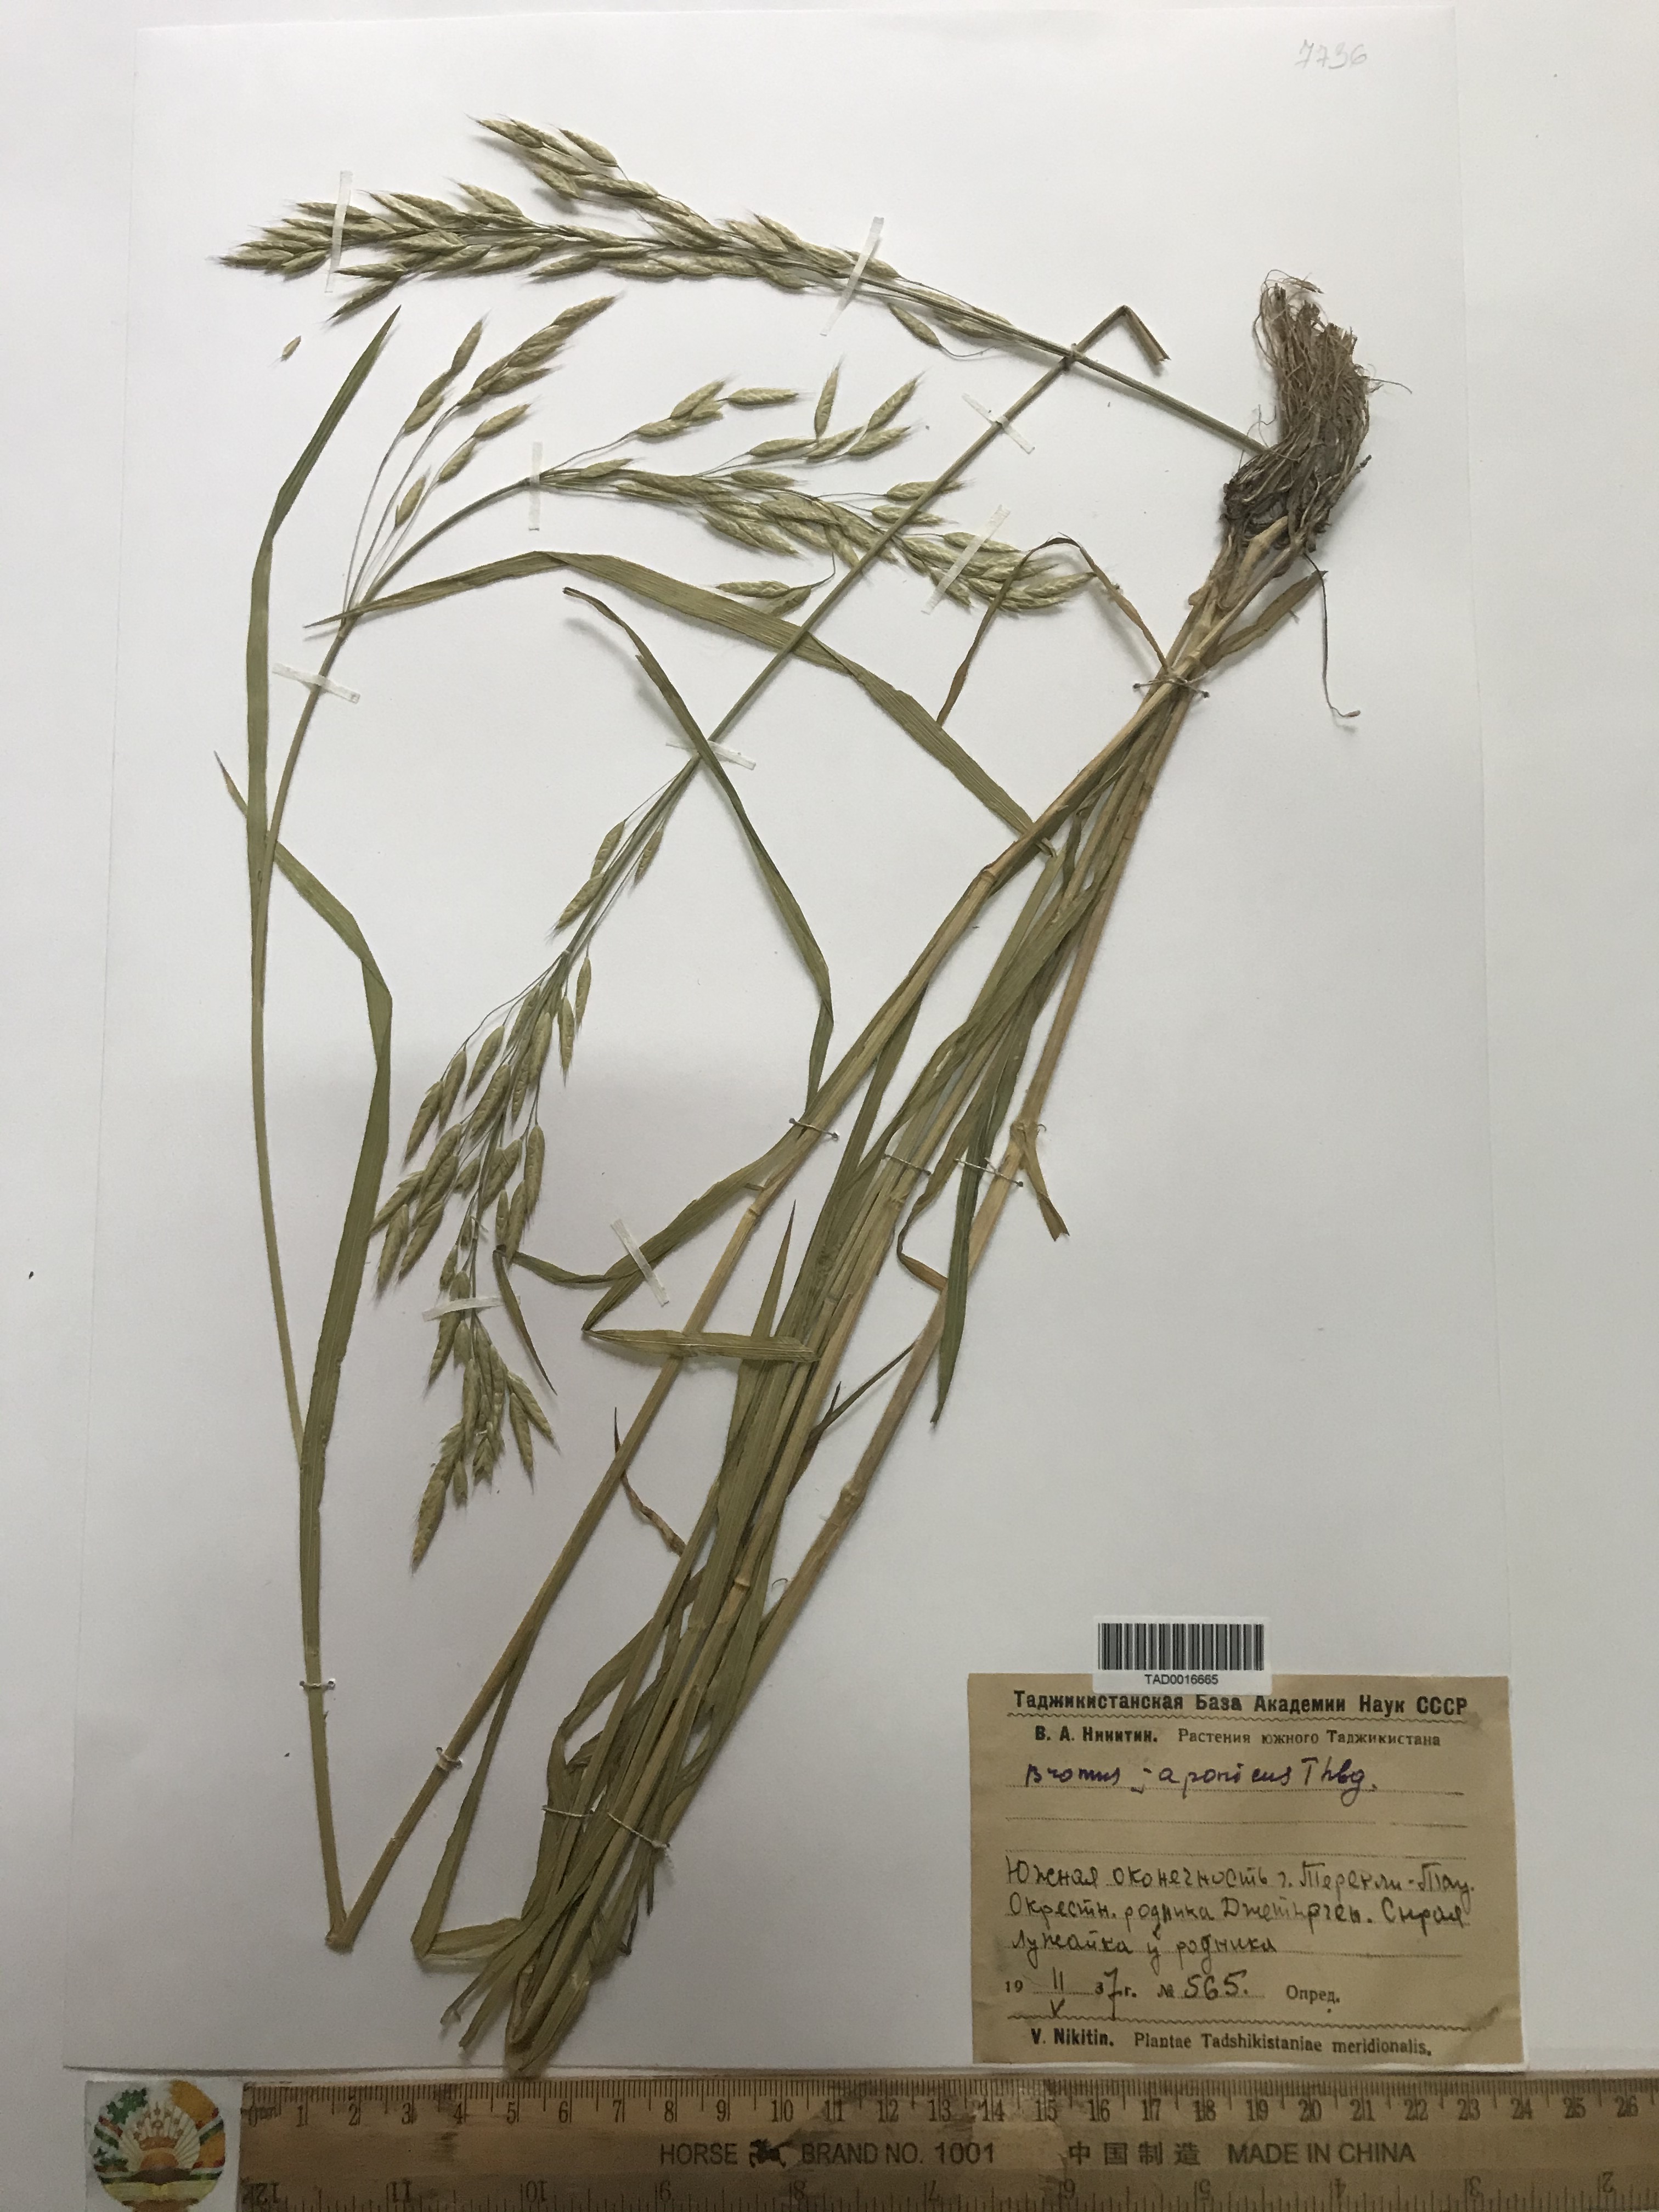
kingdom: Plantae
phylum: Tracheophyta
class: Liliopsida
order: Poales
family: Poaceae
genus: Bromus
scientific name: Bromus japonicus
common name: Japanese brome
